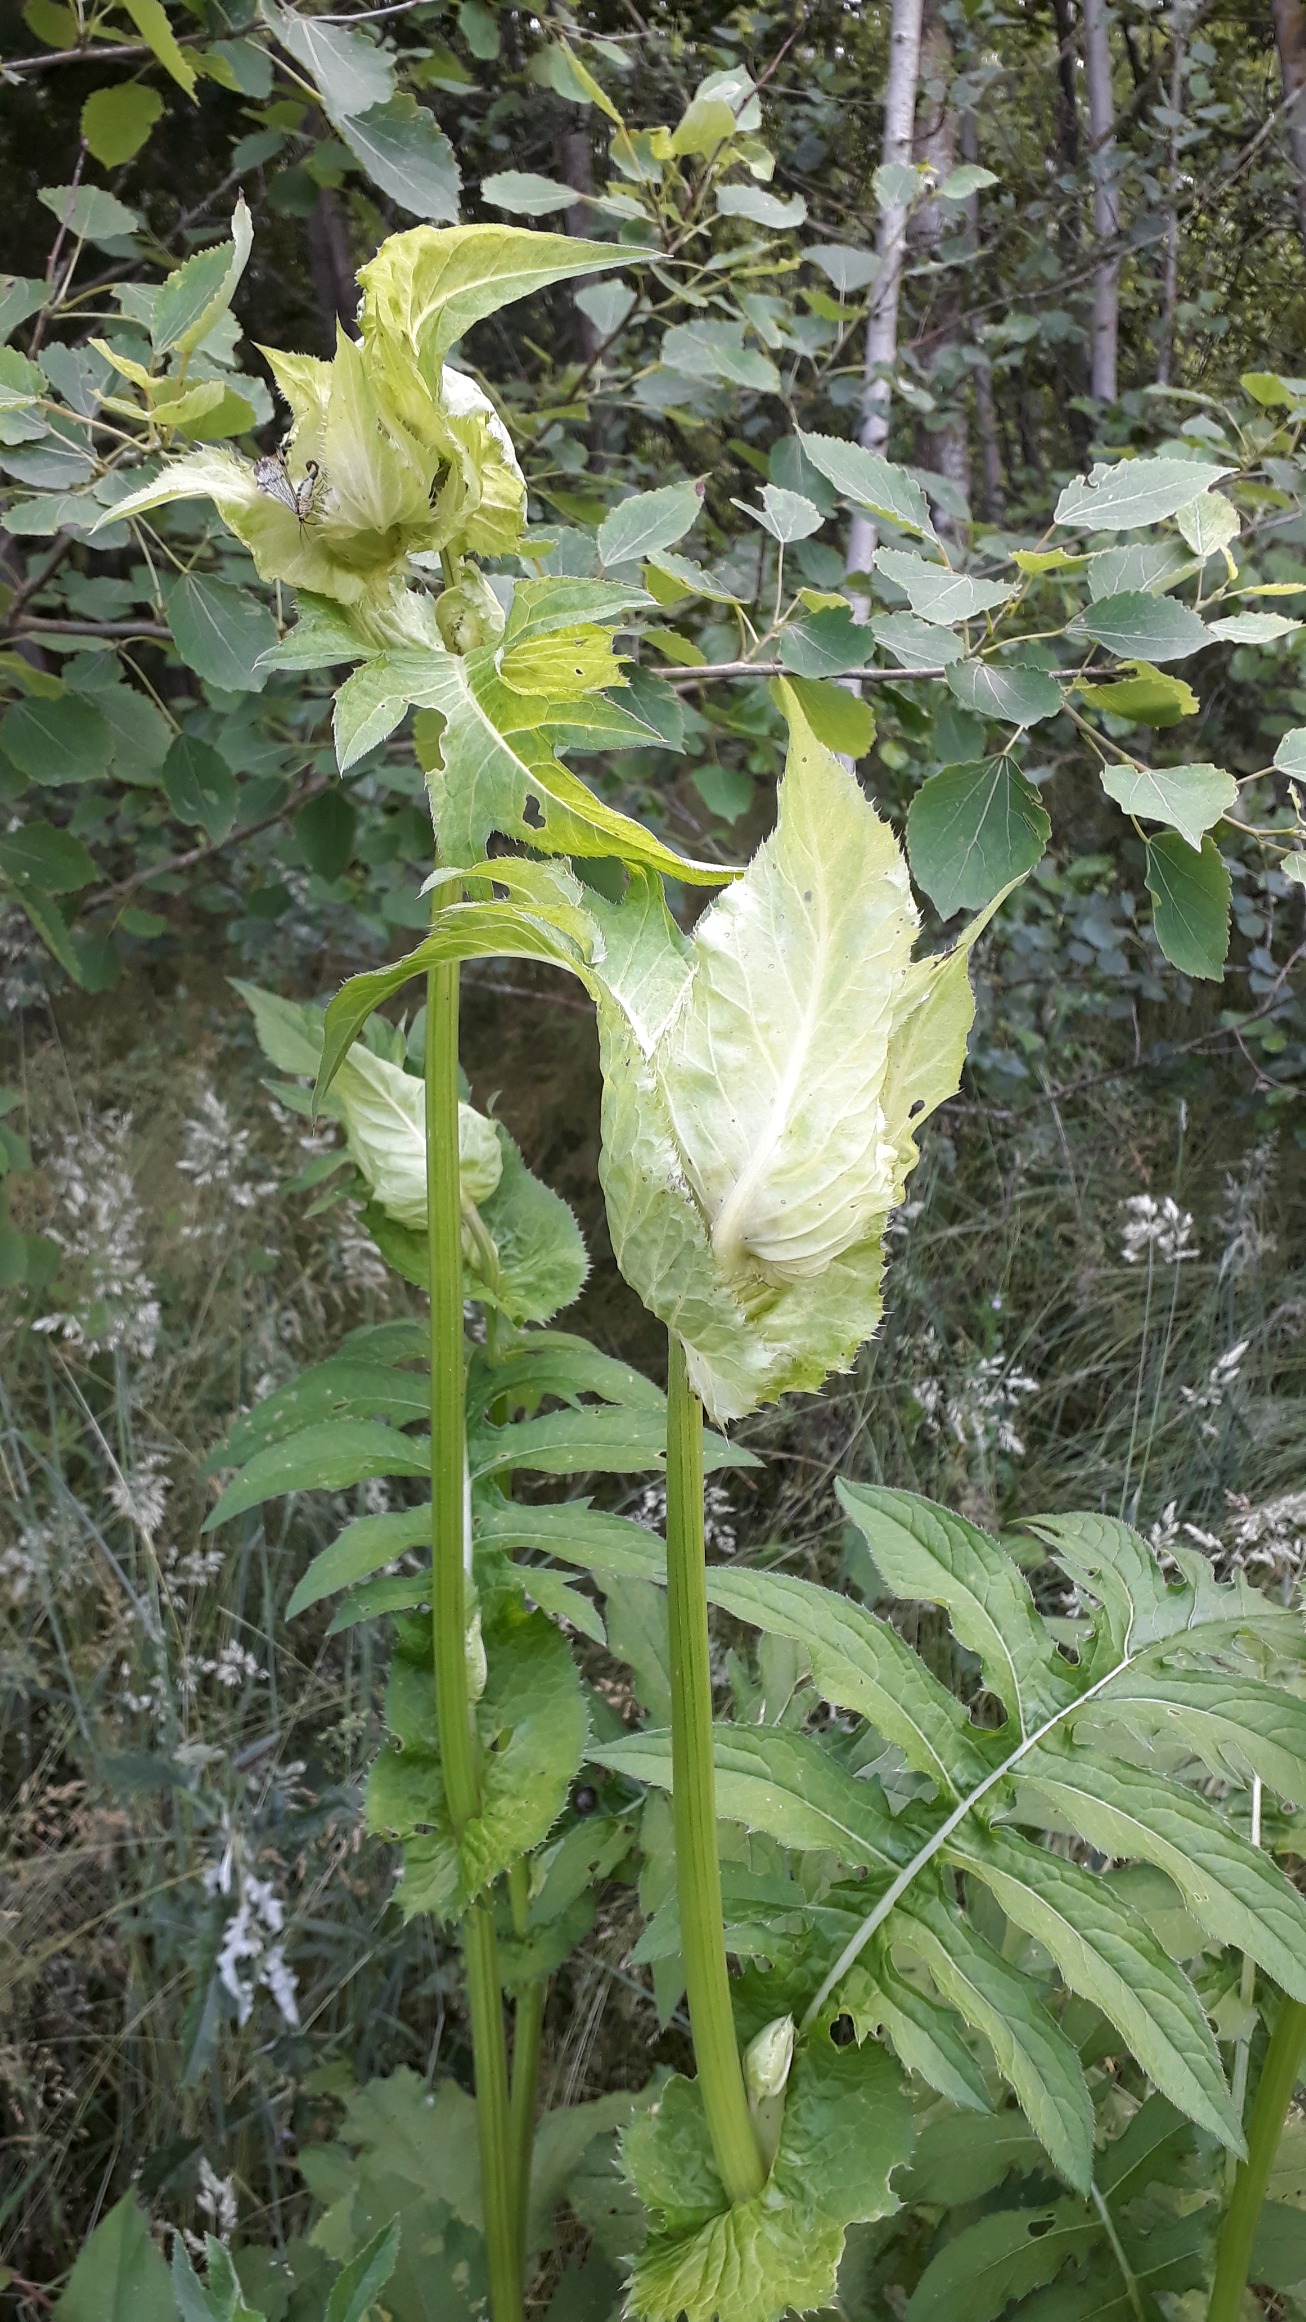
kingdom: Plantae
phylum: Tracheophyta
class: Magnoliopsida
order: Asterales
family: Asteraceae
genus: Cirsium
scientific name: Cirsium oleraceum
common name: Kål-tidsel
